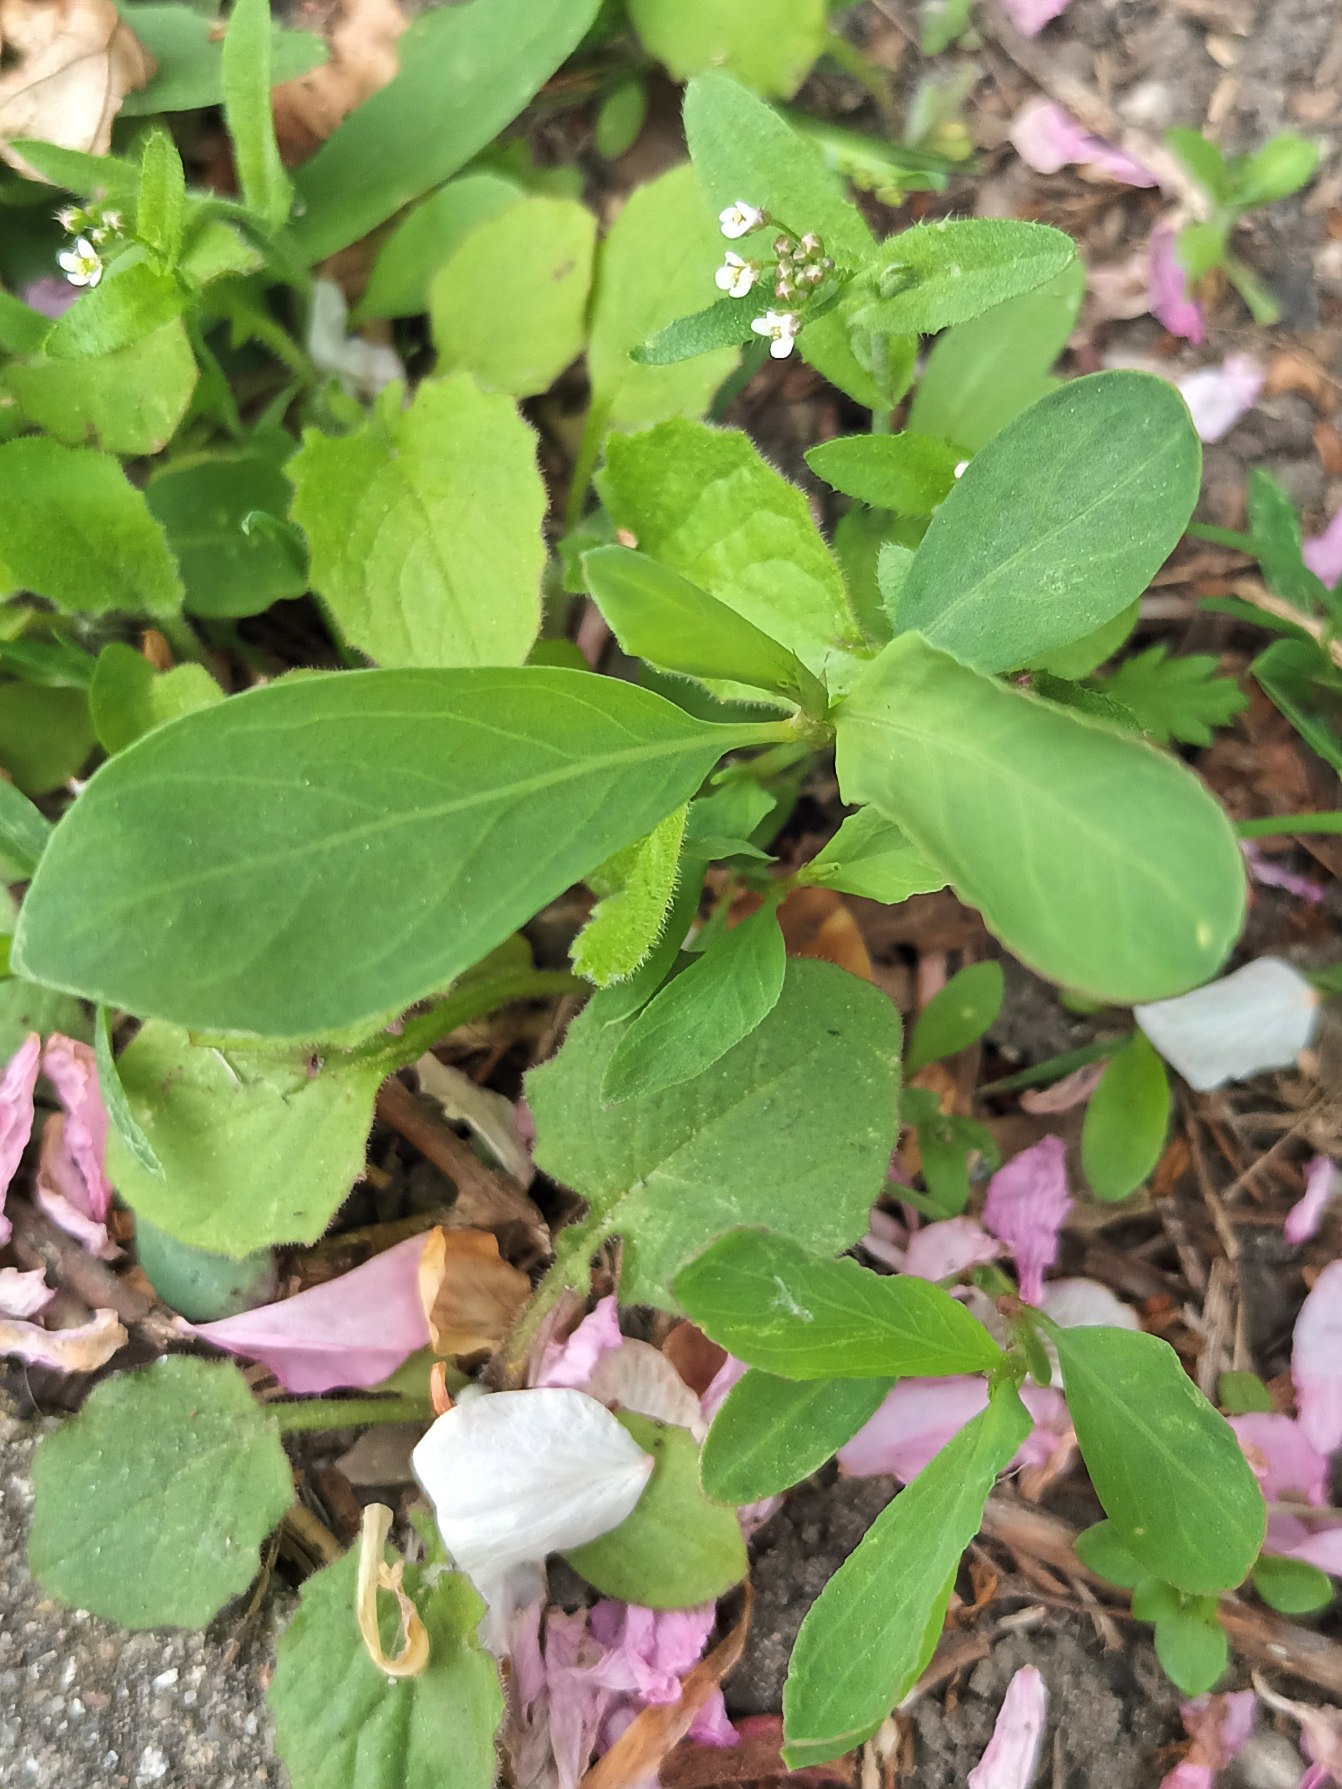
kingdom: Plantae
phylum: Tracheophyta
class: Magnoliopsida
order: Caryophyllales
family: Polygonaceae
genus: Polygonum
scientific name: Polygonum aviculare
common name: Vej-pileurt (underart)
